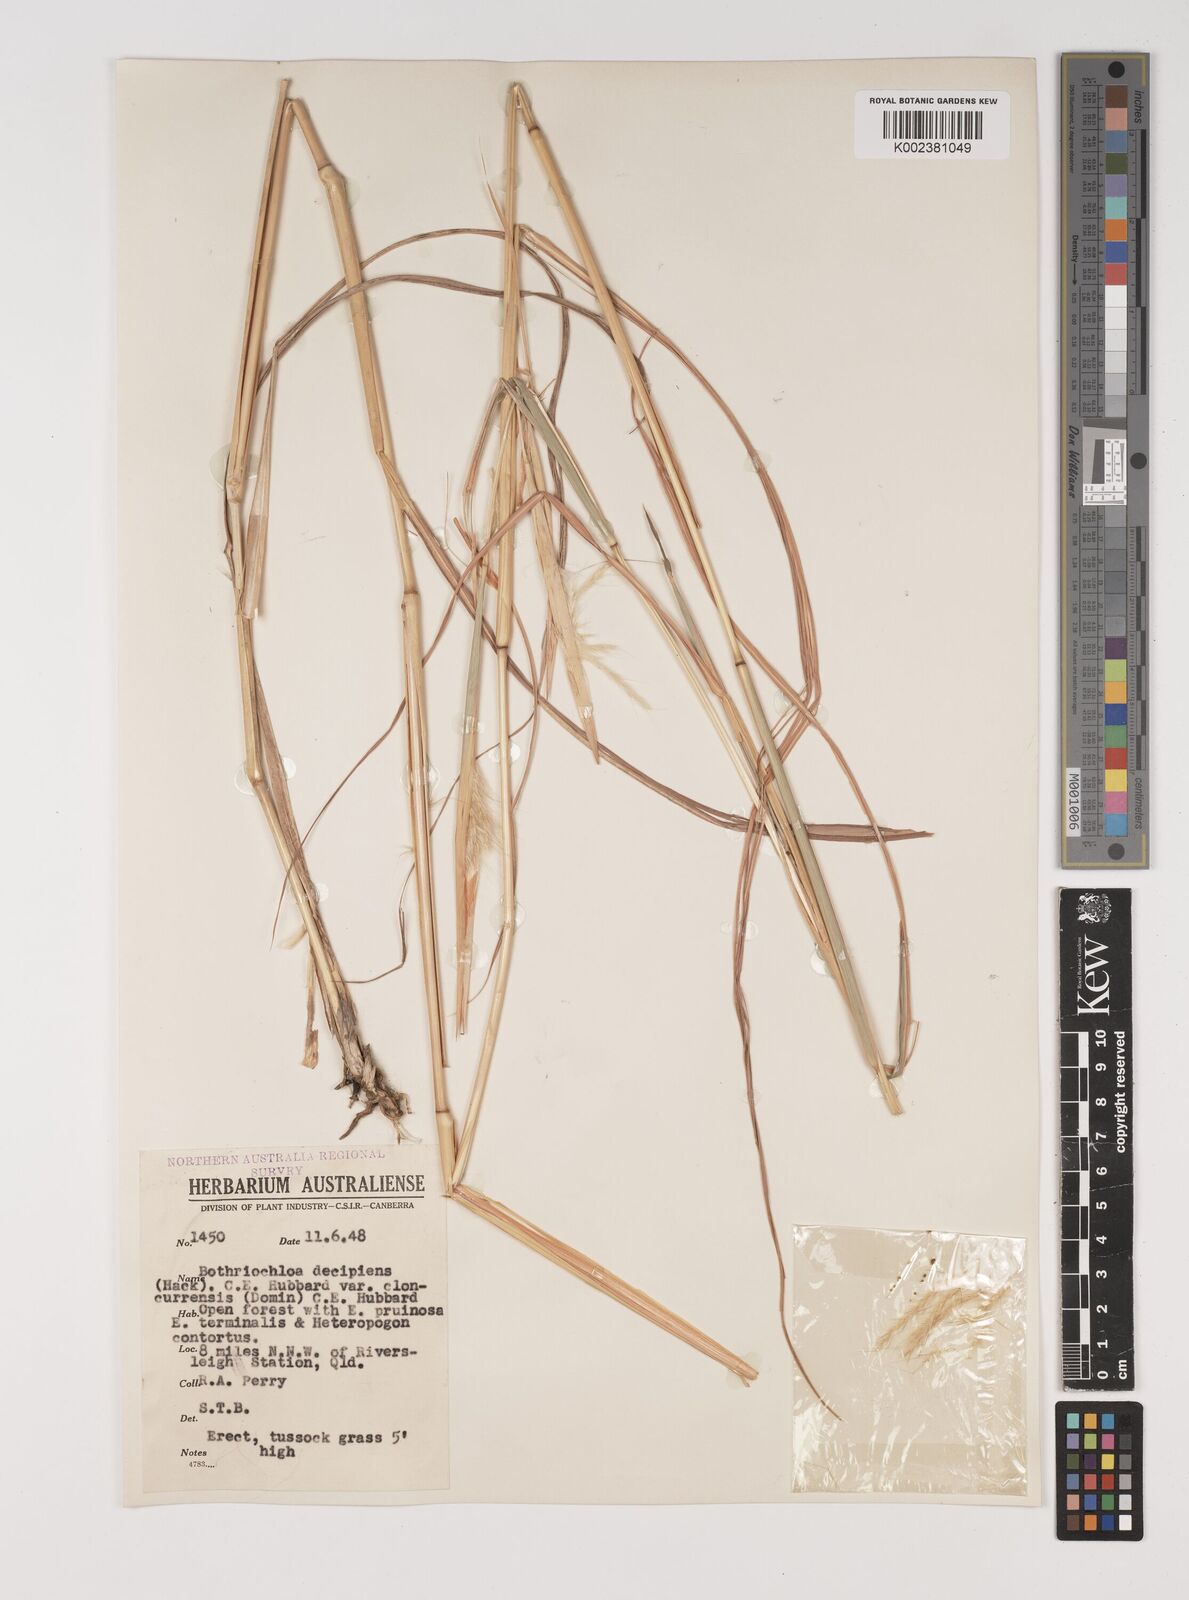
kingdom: Plantae
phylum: Tracheophyta
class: Liliopsida
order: Poales
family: Poaceae
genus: Bothriochloa
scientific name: Bothriochloa decipiens
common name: Pitted-bluegrass
